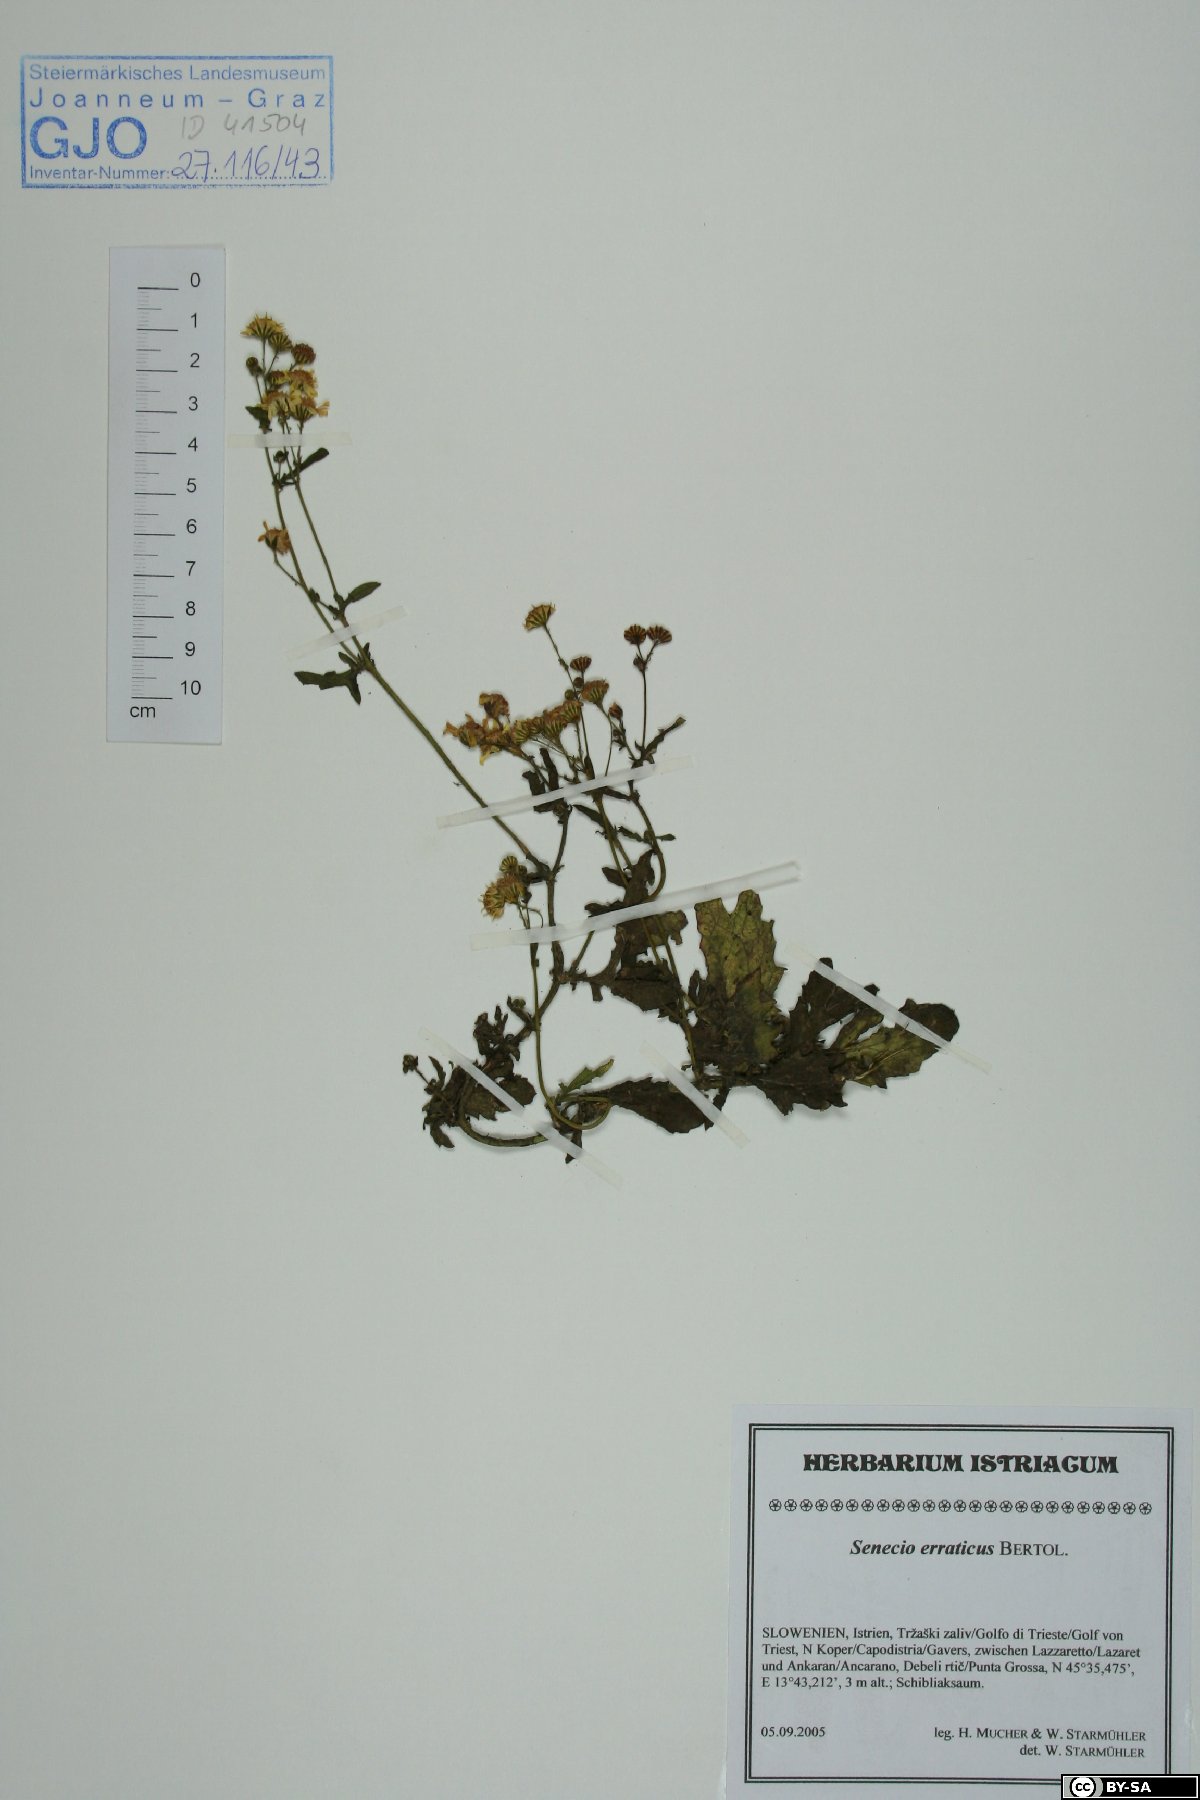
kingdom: Plantae
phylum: Tracheophyta
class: Magnoliopsida
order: Asterales
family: Asteraceae
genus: Jacobaea
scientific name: Jacobaea erratica
